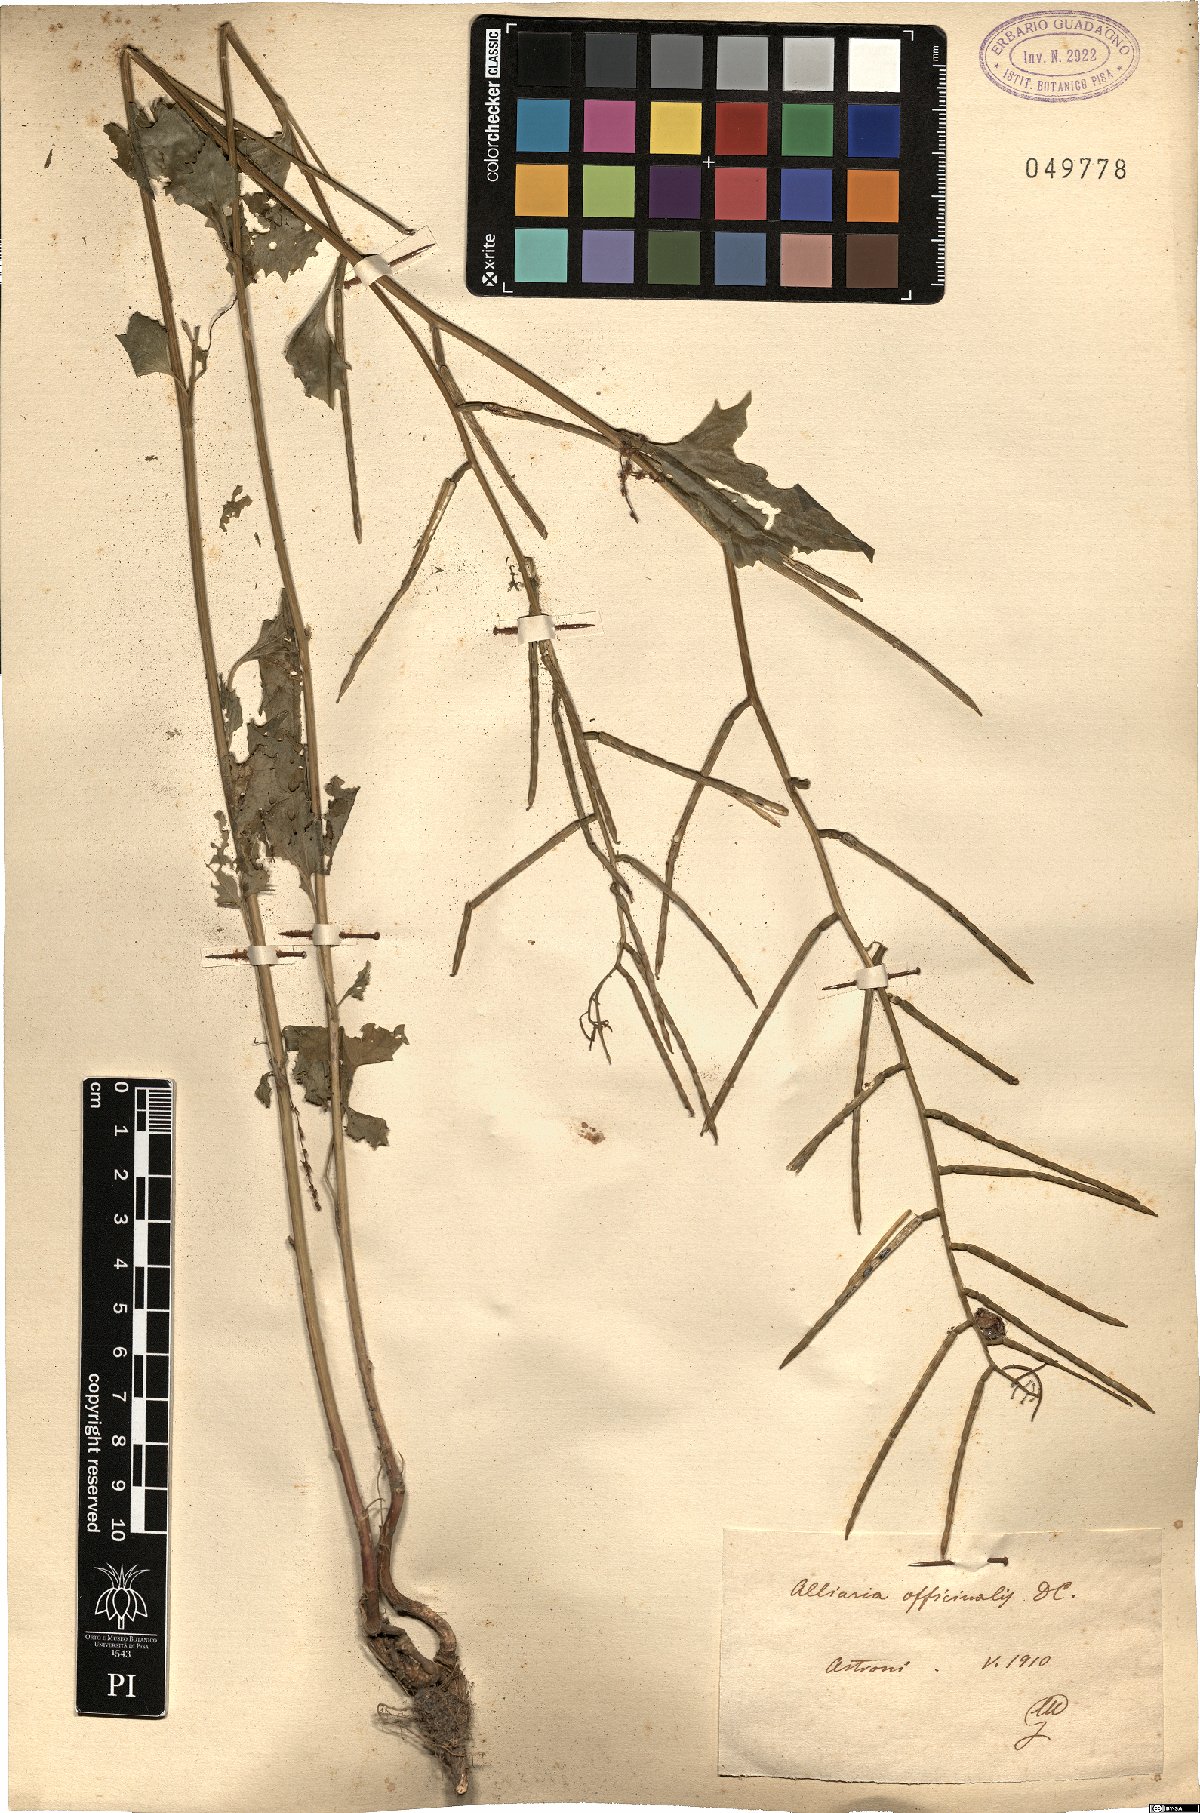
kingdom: Plantae
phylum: Tracheophyta
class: Magnoliopsida
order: Brassicales
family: Brassicaceae
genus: Alliaria
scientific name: Alliaria petiolata
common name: Garlic mustard
